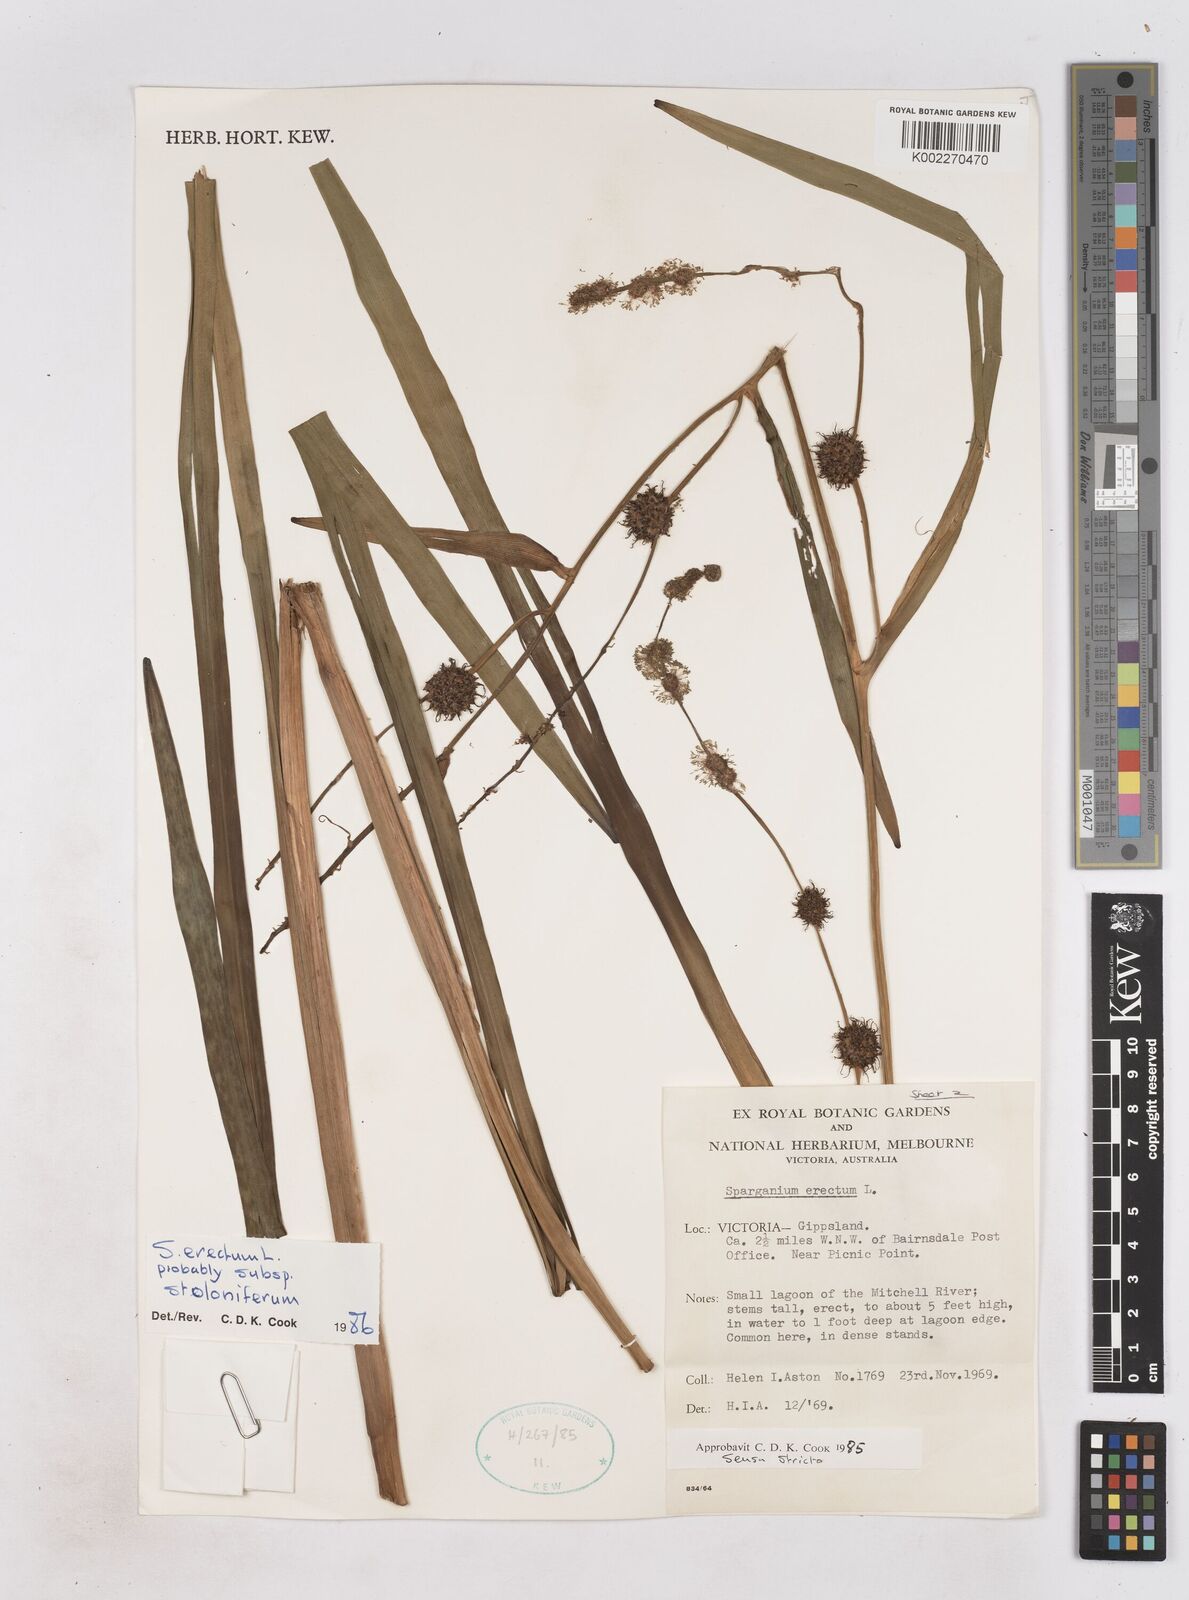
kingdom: Plantae
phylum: Tracheophyta
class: Liliopsida
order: Poales
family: Typhaceae
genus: Sparganium
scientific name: Sparganium erectum
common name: Branched bur-reed
